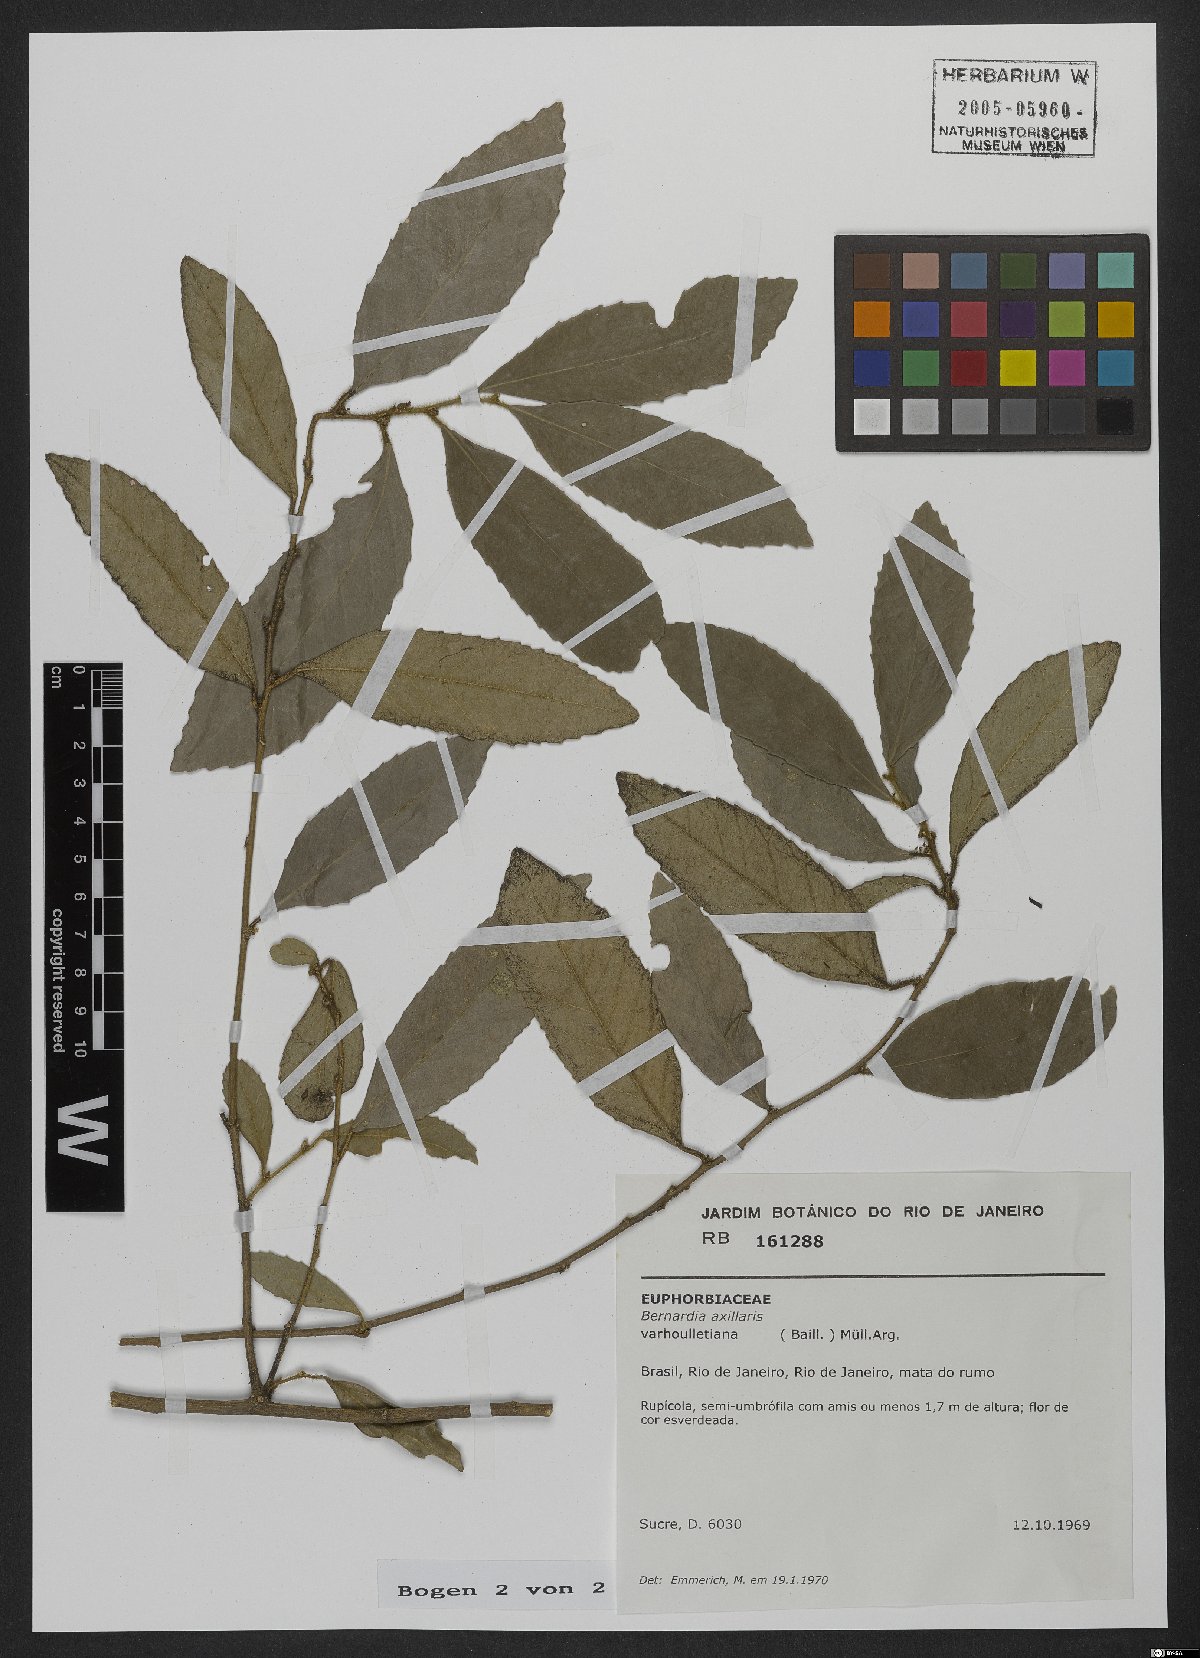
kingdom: Plantae
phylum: Tracheophyta
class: Magnoliopsida
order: Malpighiales
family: Euphorbiaceae
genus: Bernardia
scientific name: Bernardia axillaris
